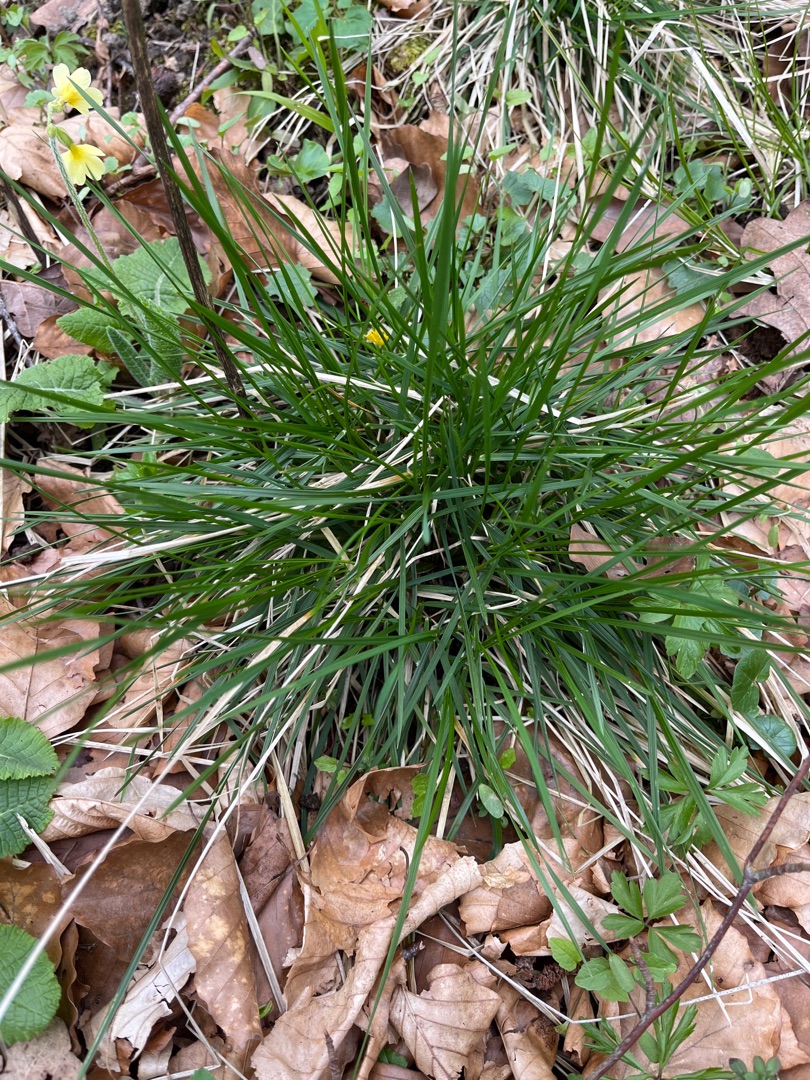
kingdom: Plantae
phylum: Tracheophyta
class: Liliopsida
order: Poales
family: Poaceae
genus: Deschampsia
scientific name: Deschampsia cespitosa
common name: Mose-bunke
